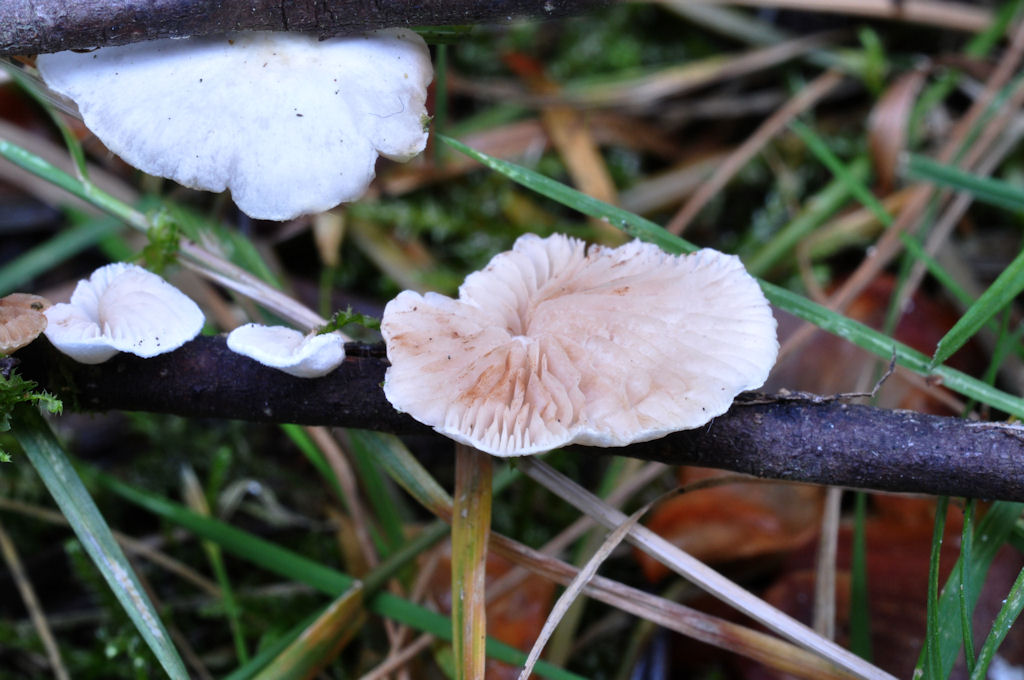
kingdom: Fungi
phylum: Basidiomycota
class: Agaricomycetes
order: Agaricales
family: Crepidotaceae
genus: Crepidotus
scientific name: Crepidotus variabilis
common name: forskelligformet muslingesvamp
